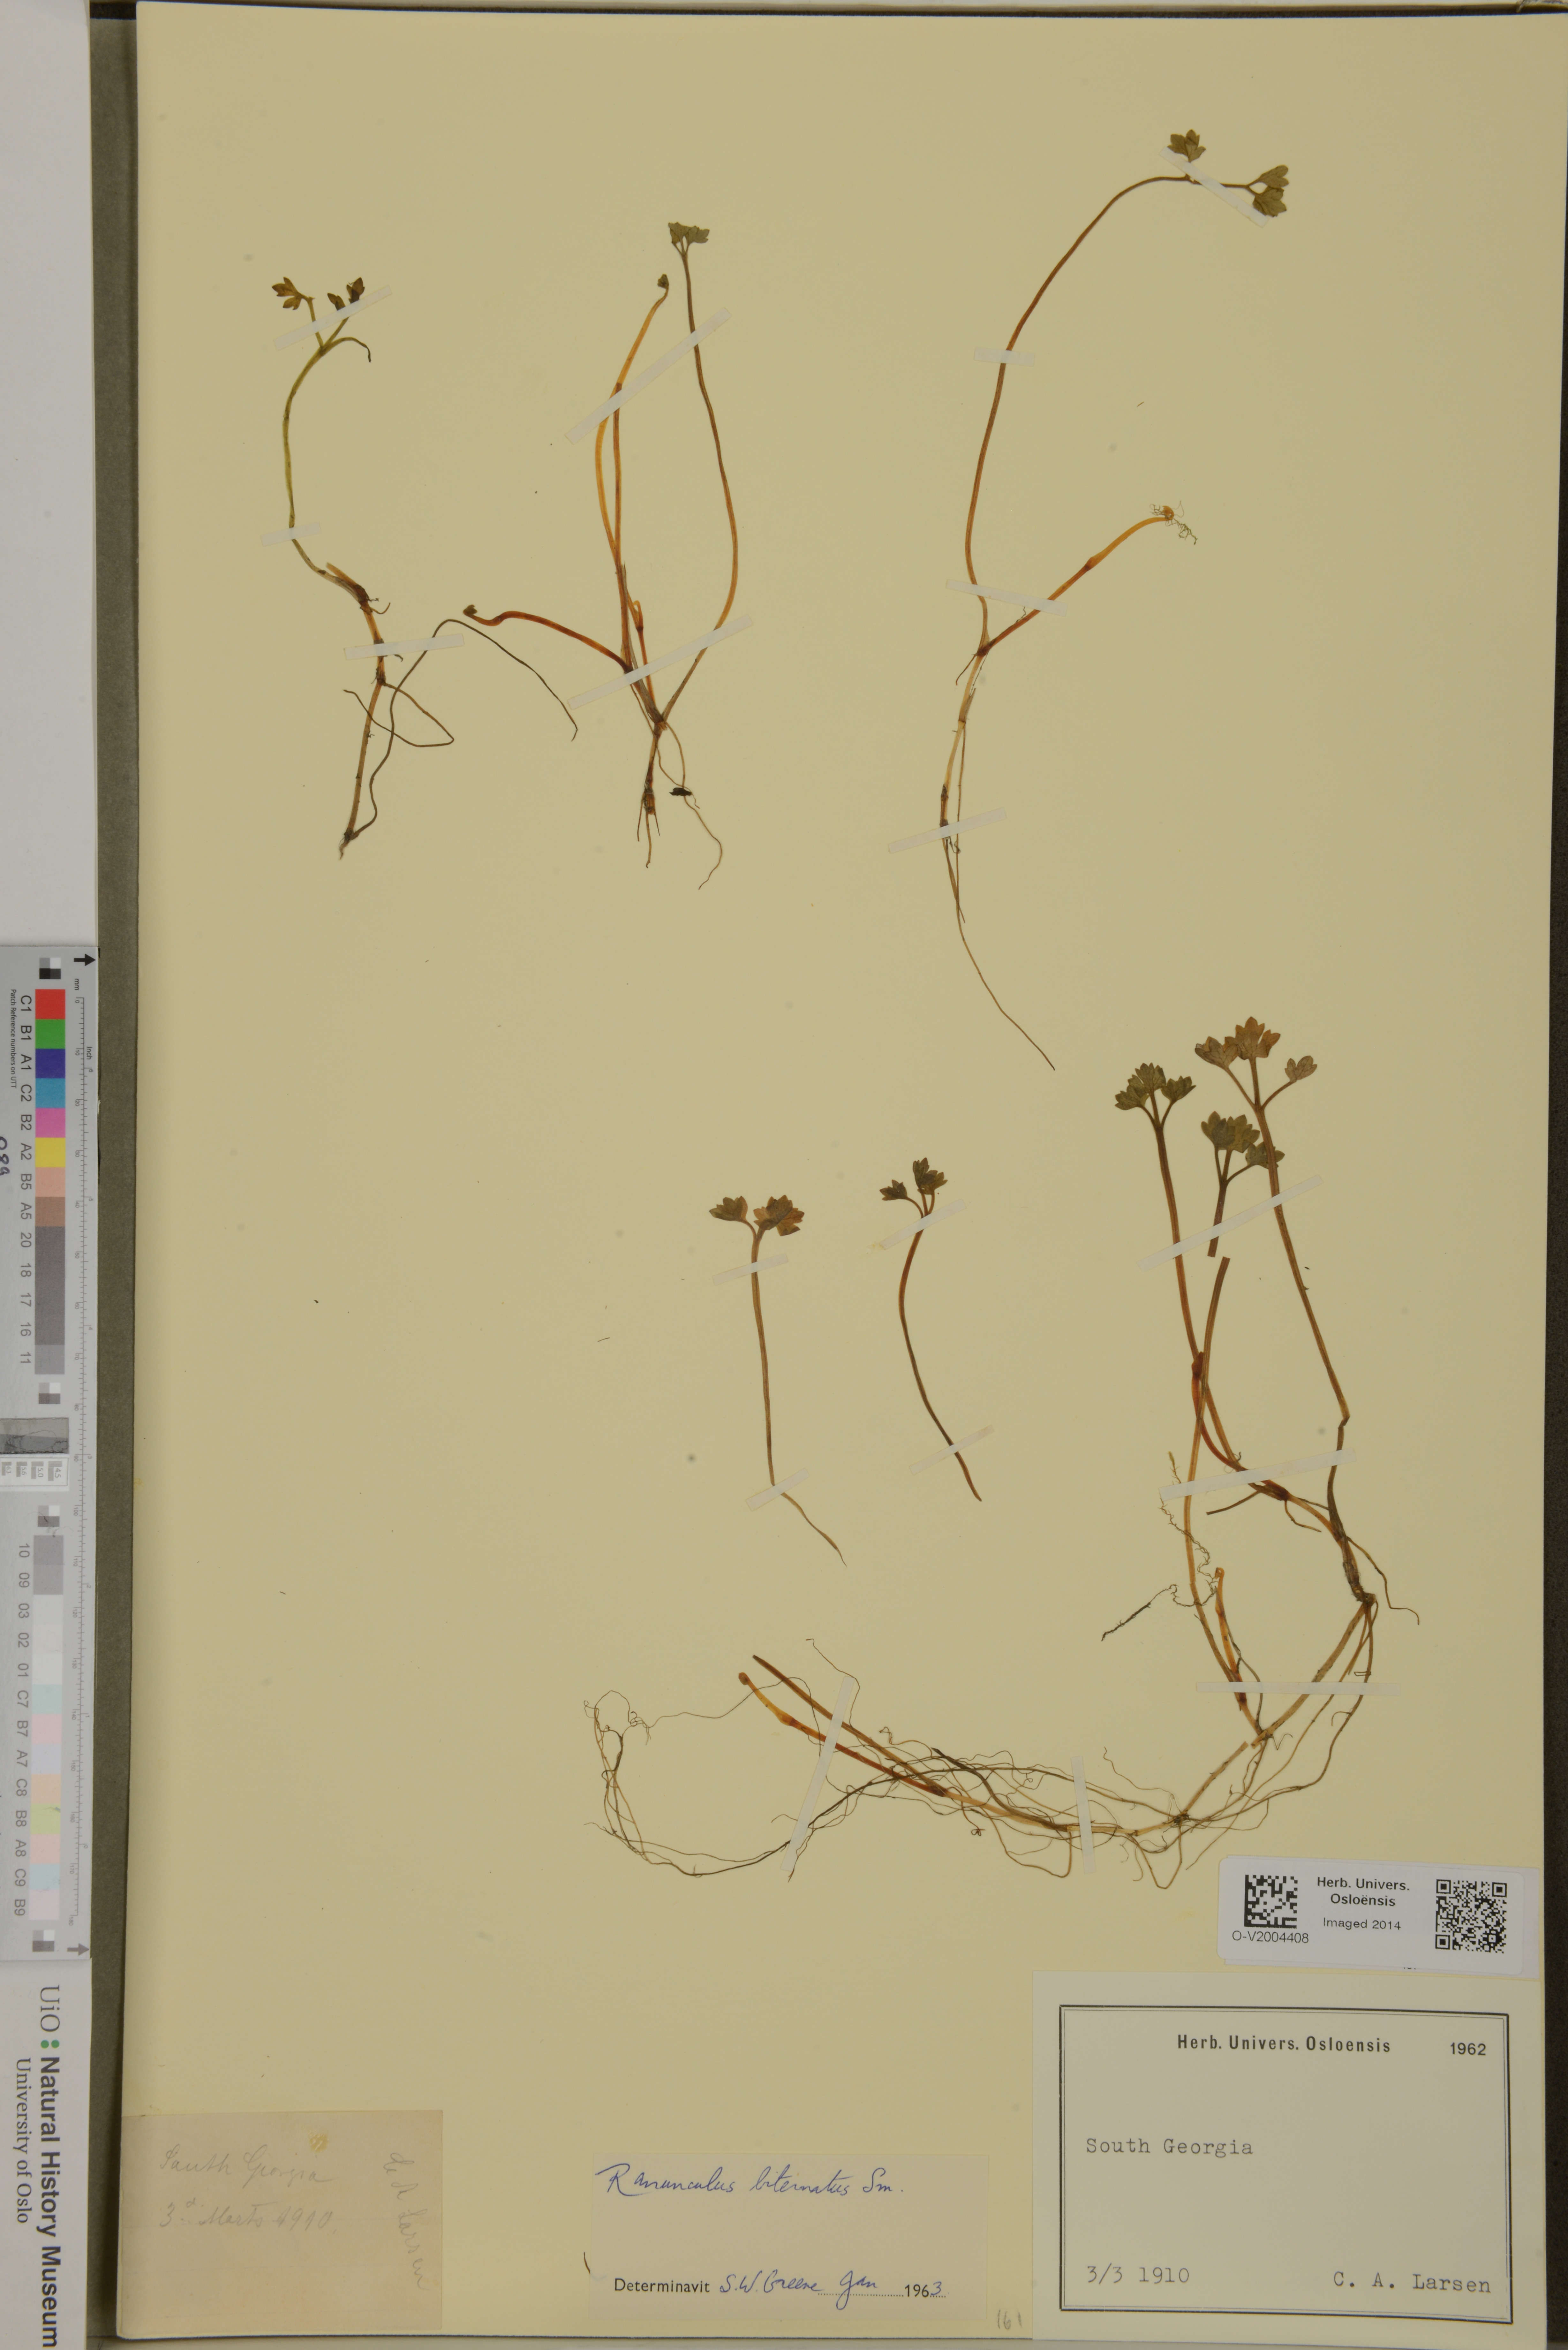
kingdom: Plantae
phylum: Tracheophyta
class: Magnoliopsida
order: Ranunculales
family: Ranunculaceae
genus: Ranunculus
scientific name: Ranunculus biternatus
